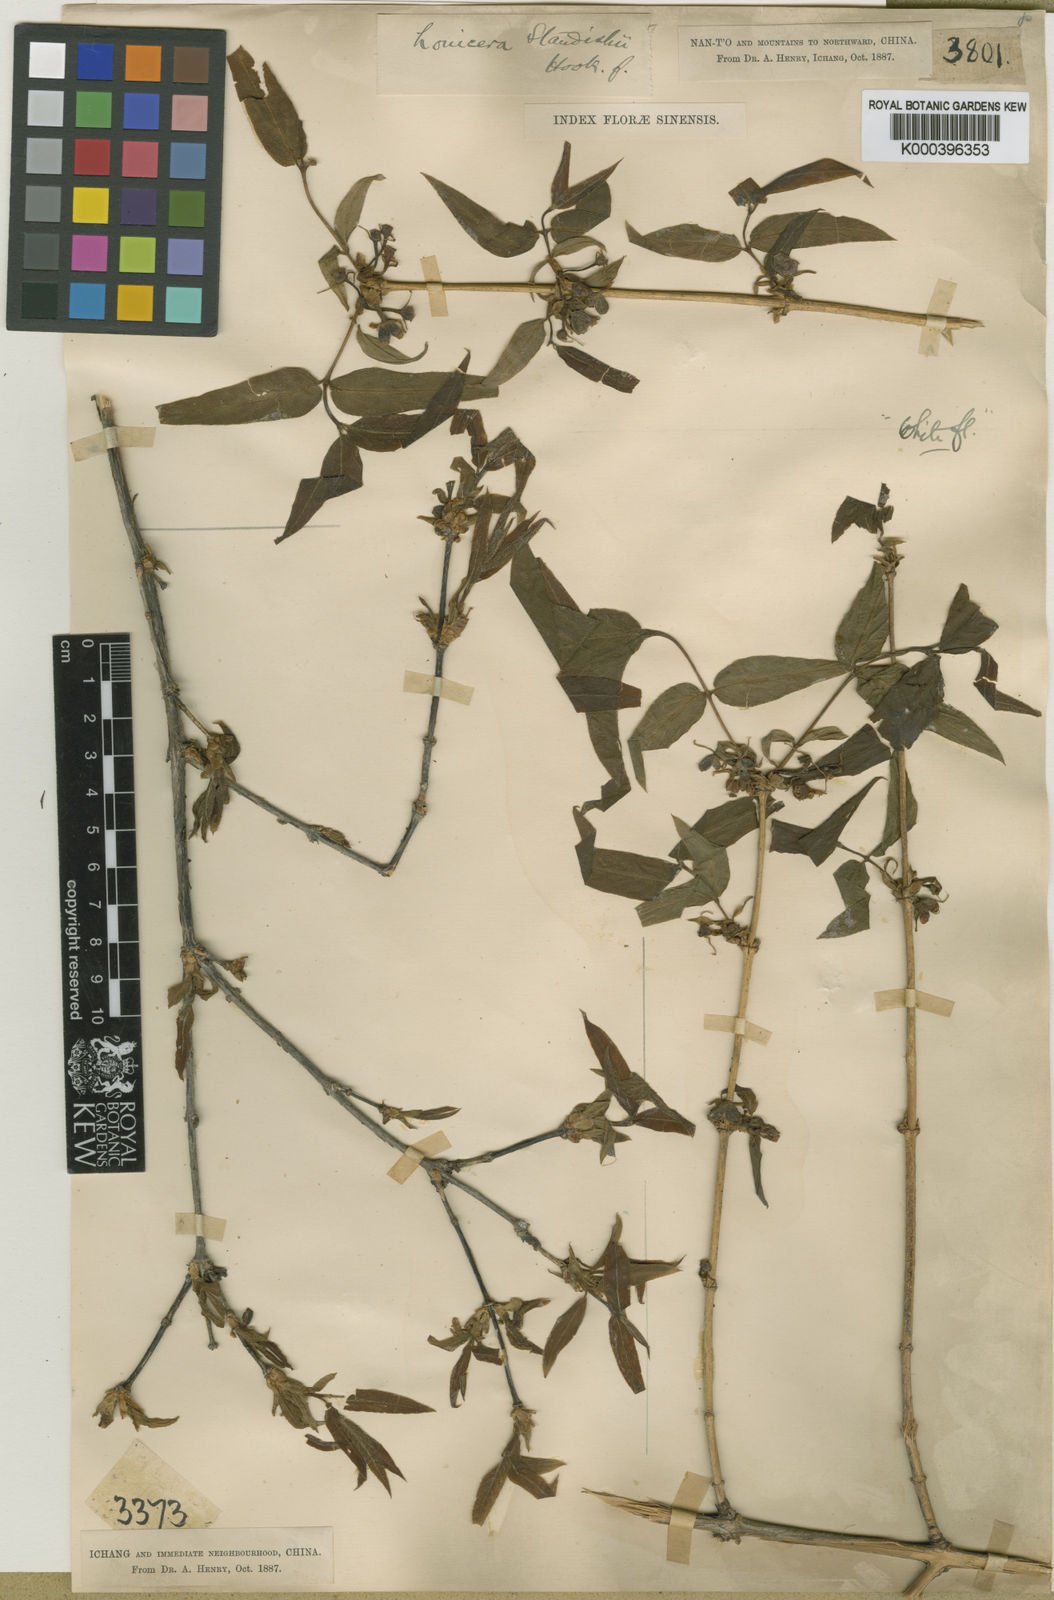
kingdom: Plantae
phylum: Tracheophyta
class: Magnoliopsida
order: Dipsacales
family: Caprifoliaceae
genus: Lonicera
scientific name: Lonicera fragrantissima
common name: Fragrant honeysuckle
